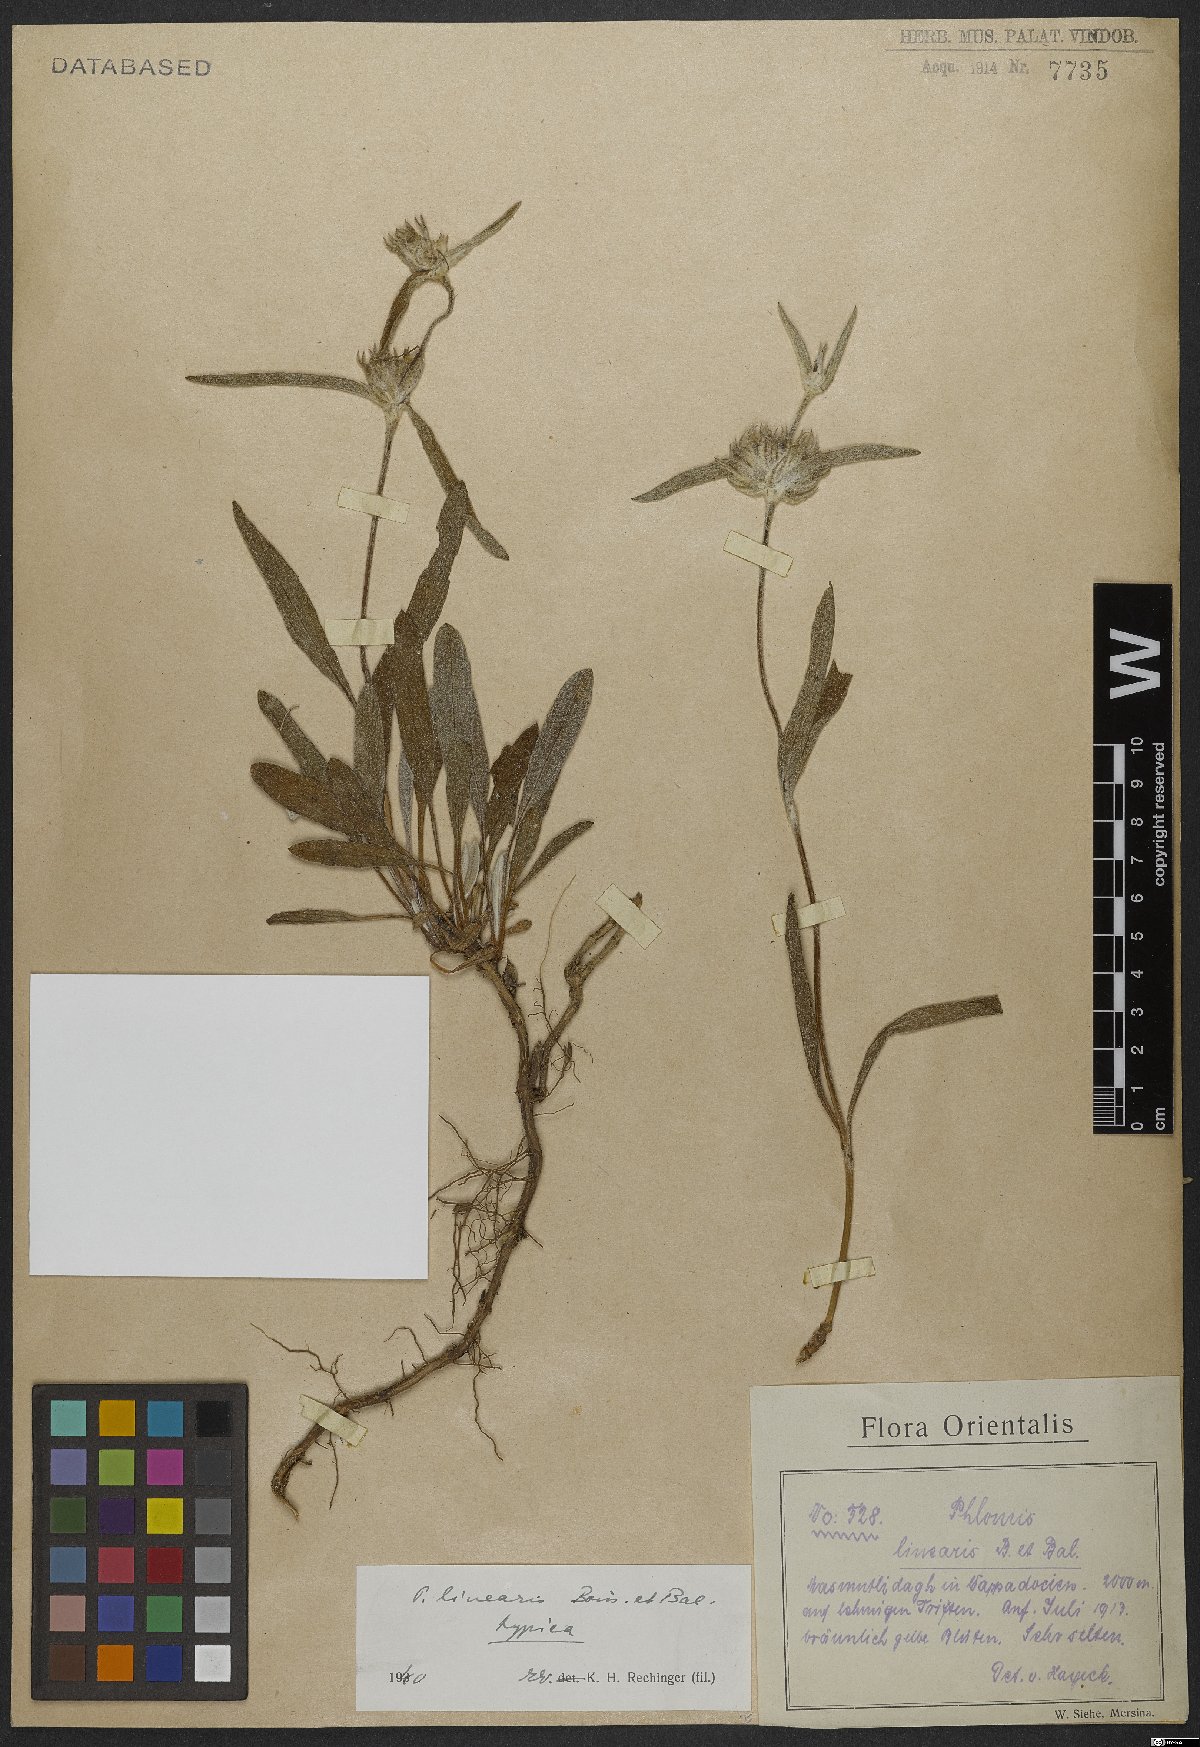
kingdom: Plantae
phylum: Tracheophyta
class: Magnoliopsida
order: Lamiales
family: Lamiaceae
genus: Phlomis
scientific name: Phlomis linearis
